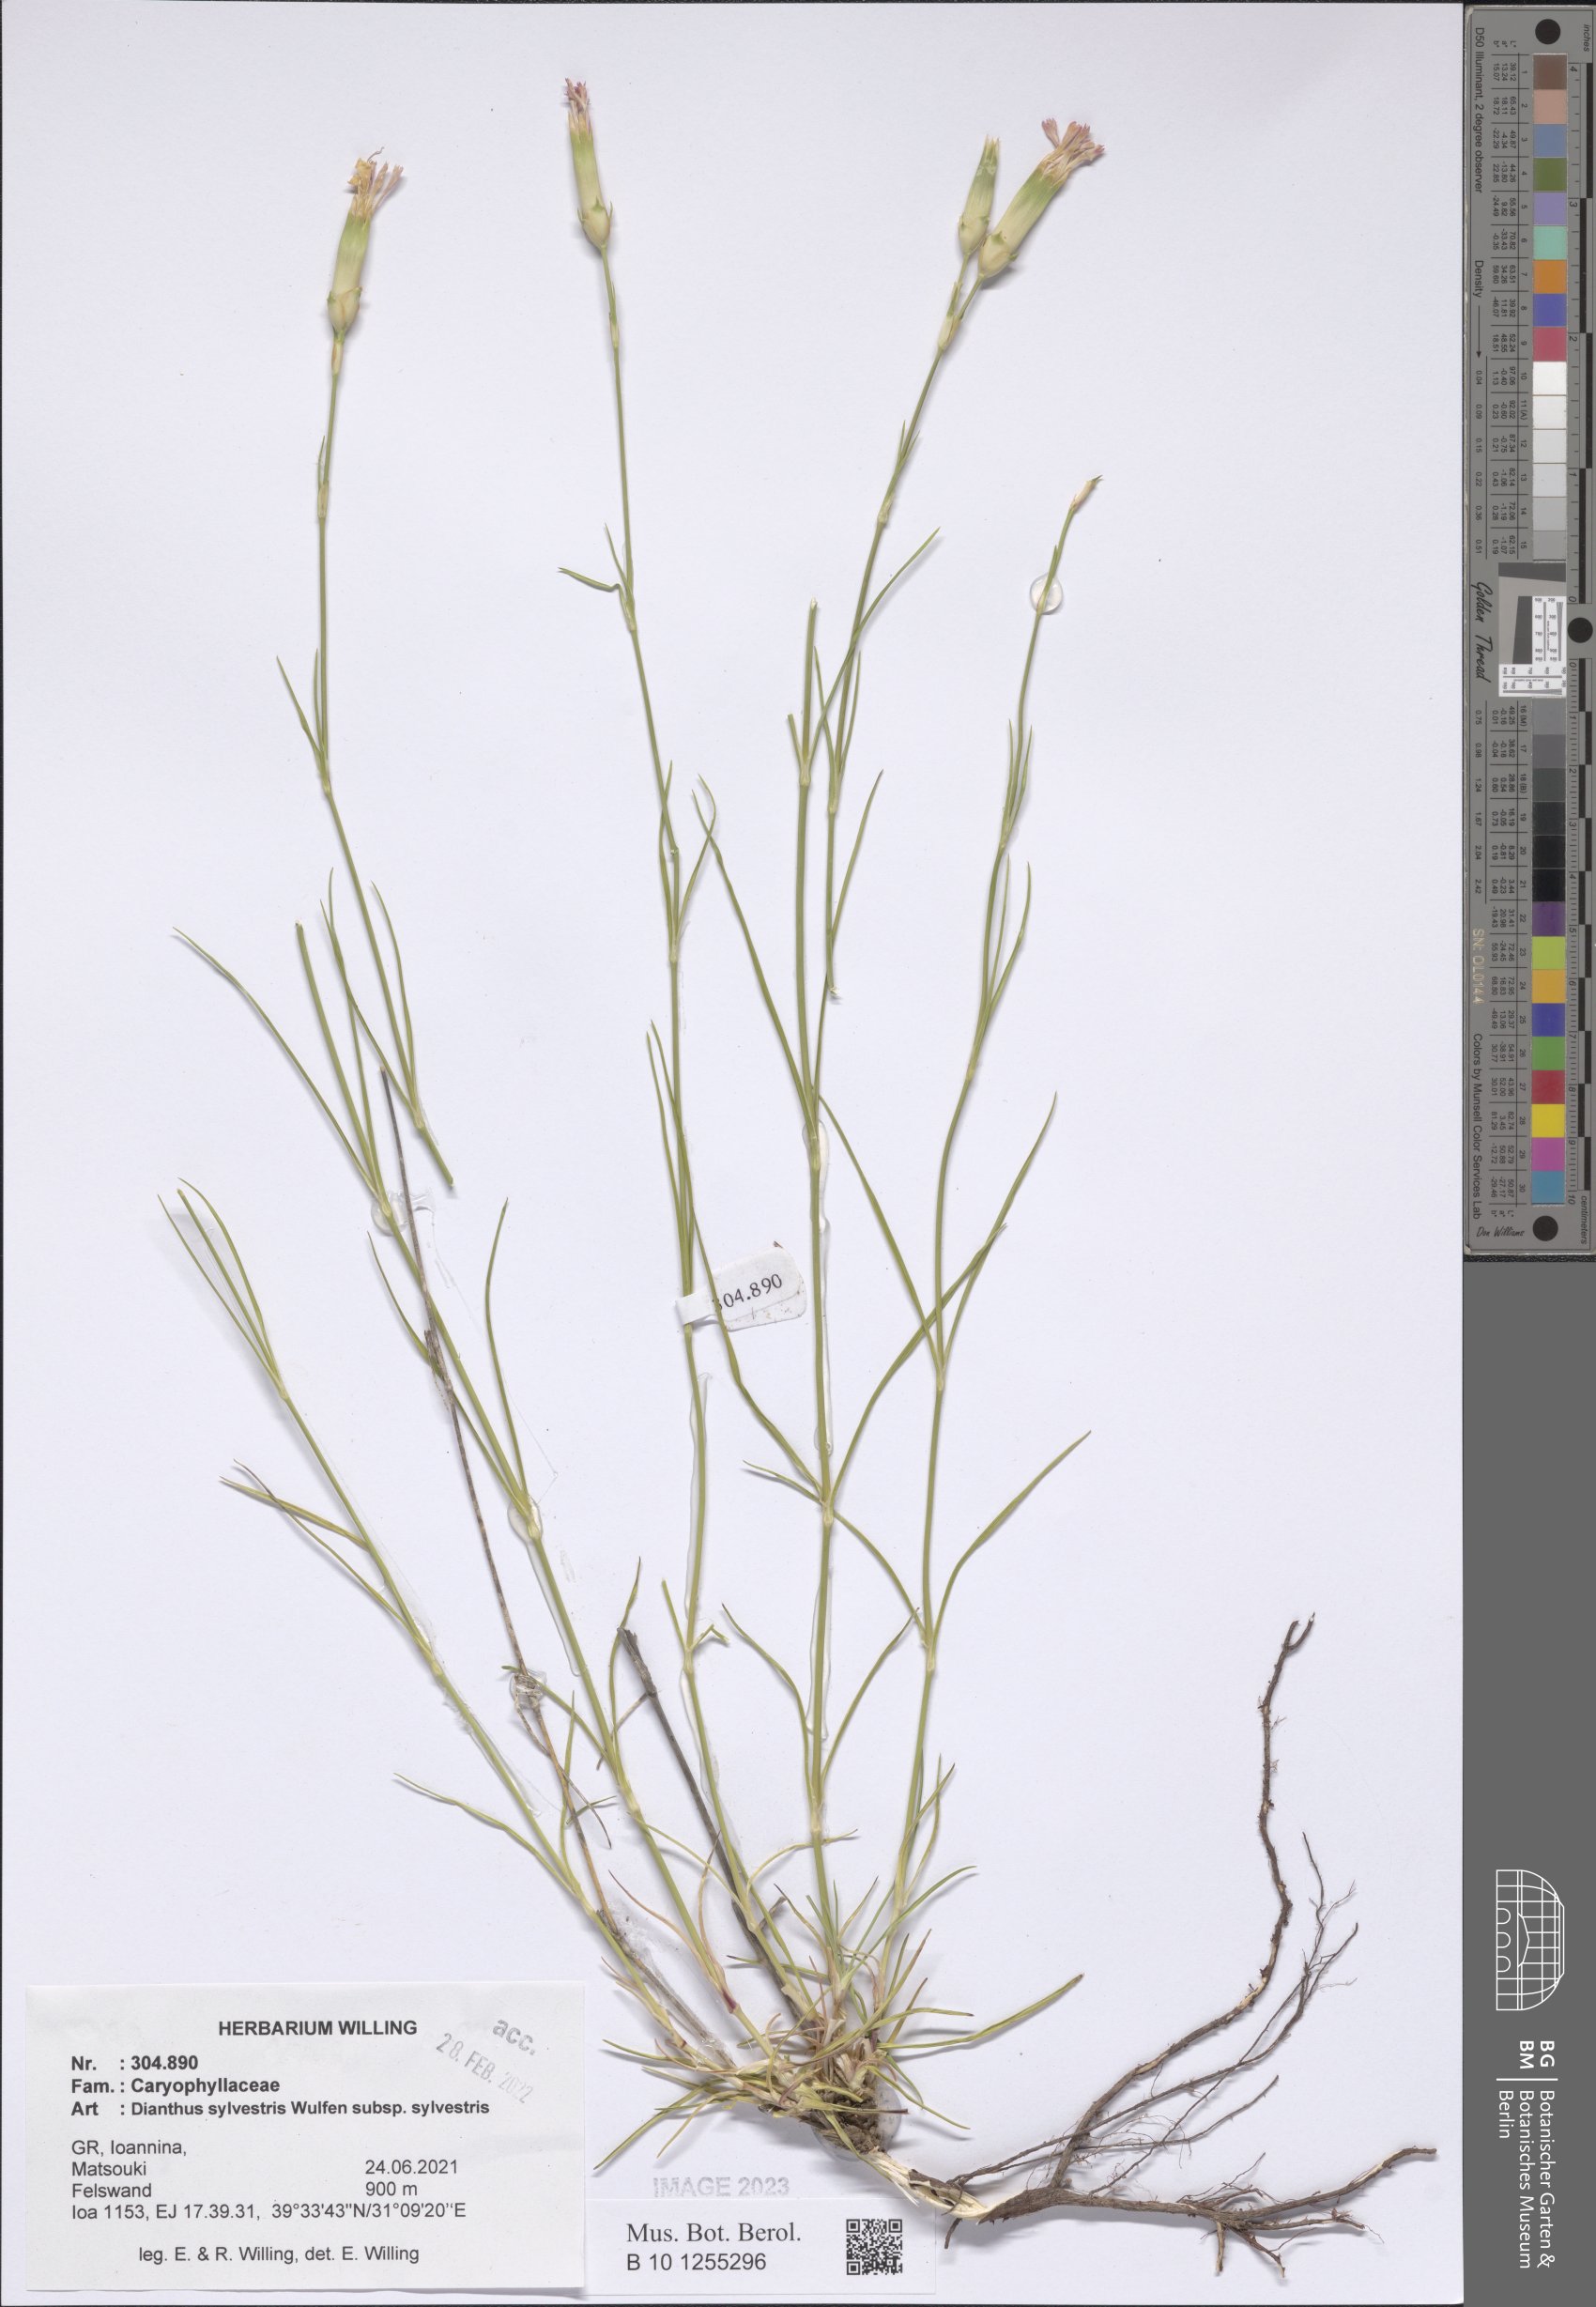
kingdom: Plantae
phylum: Tracheophyta
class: Magnoliopsida
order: Caryophyllales
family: Caryophyllaceae
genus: Dianthus
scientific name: Dianthus sylvestris
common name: Wood pink
